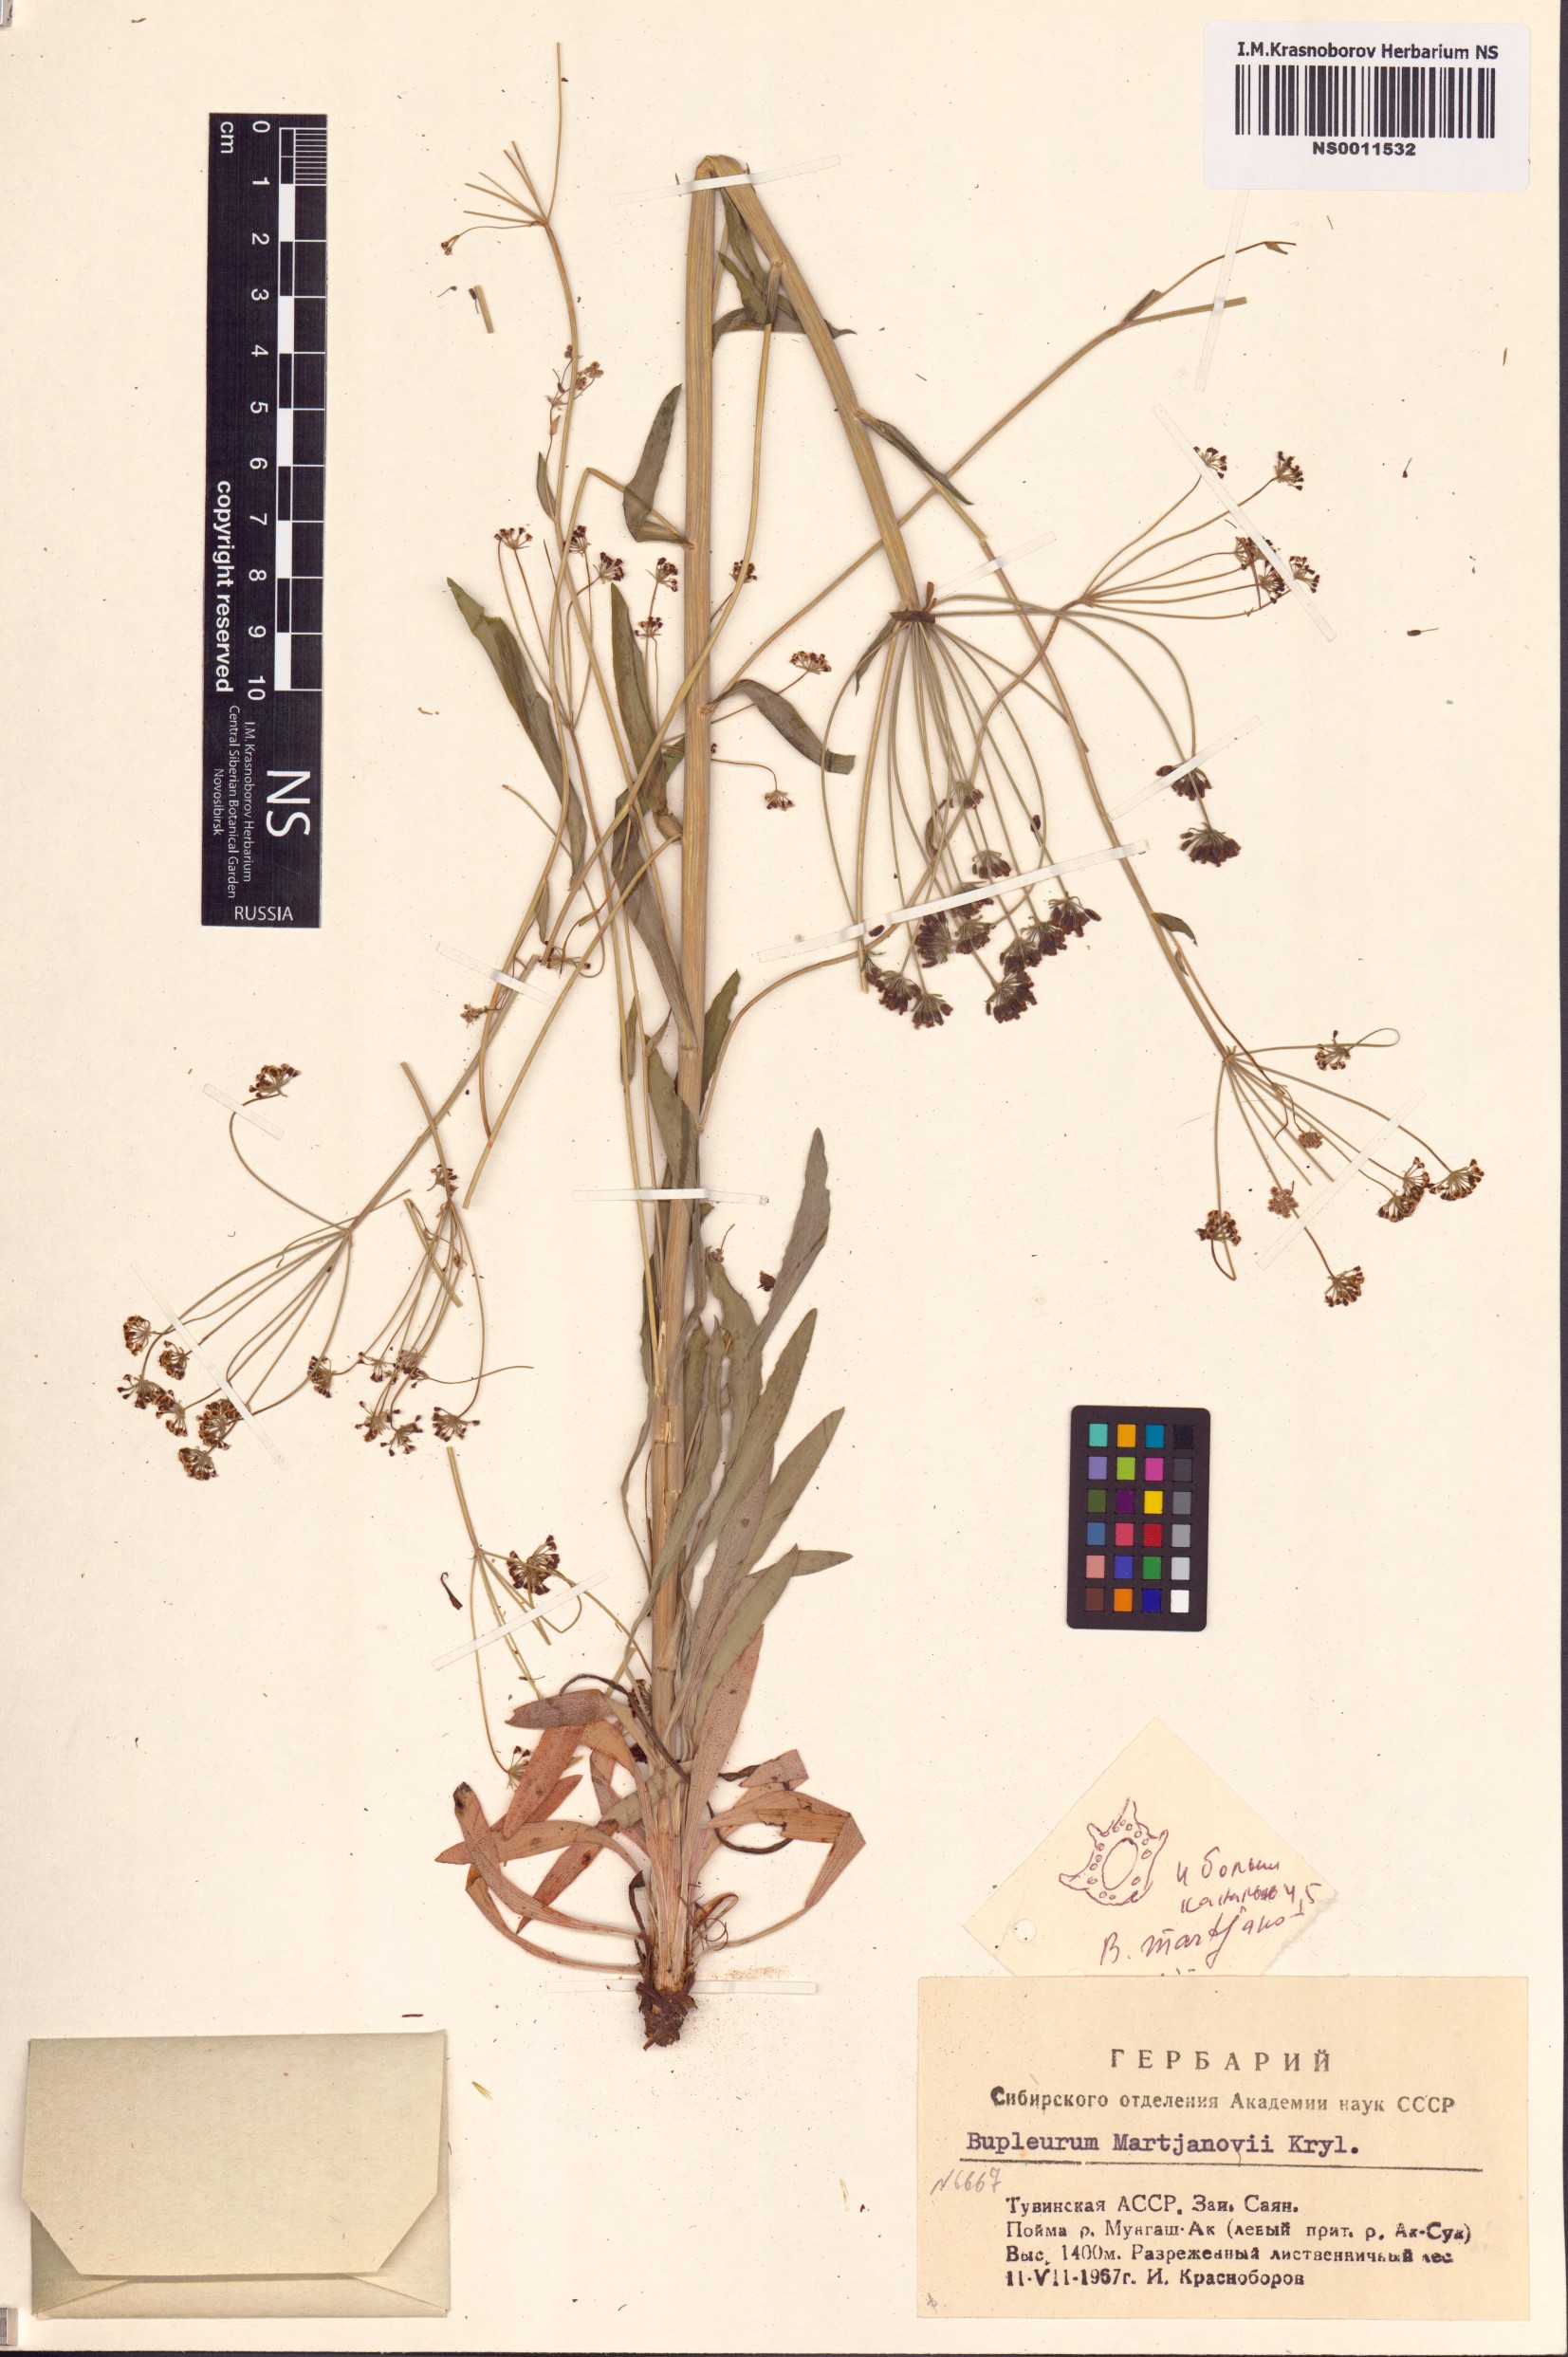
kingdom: Plantae
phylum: Tracheophyta
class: Magnoliopsida
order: Apiales
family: Apiaceae
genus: Bupleurum
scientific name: Bupleurum martjanovii
